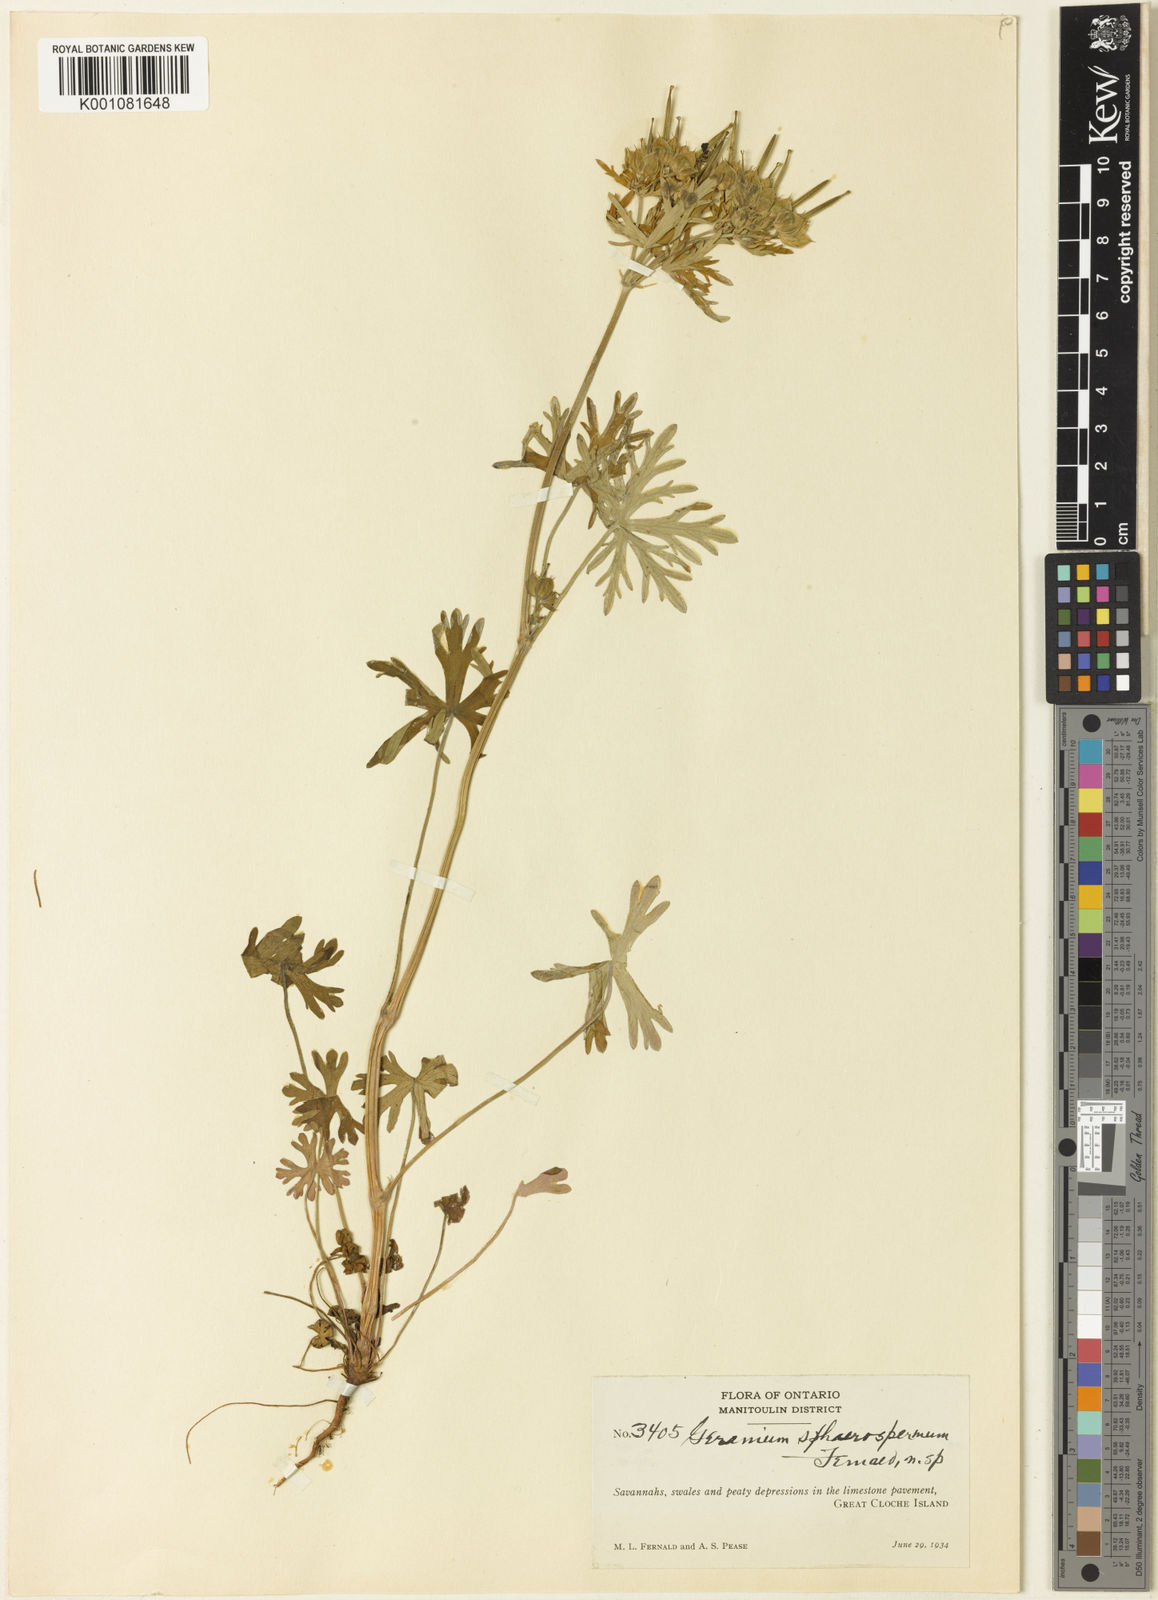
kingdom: Plantae
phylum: Tracheophyta
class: Magnoliopsida
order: Geraniales
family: Geraniaceae
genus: Geranium
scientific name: Geranium carolinianum
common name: Carolina crane's-bill
